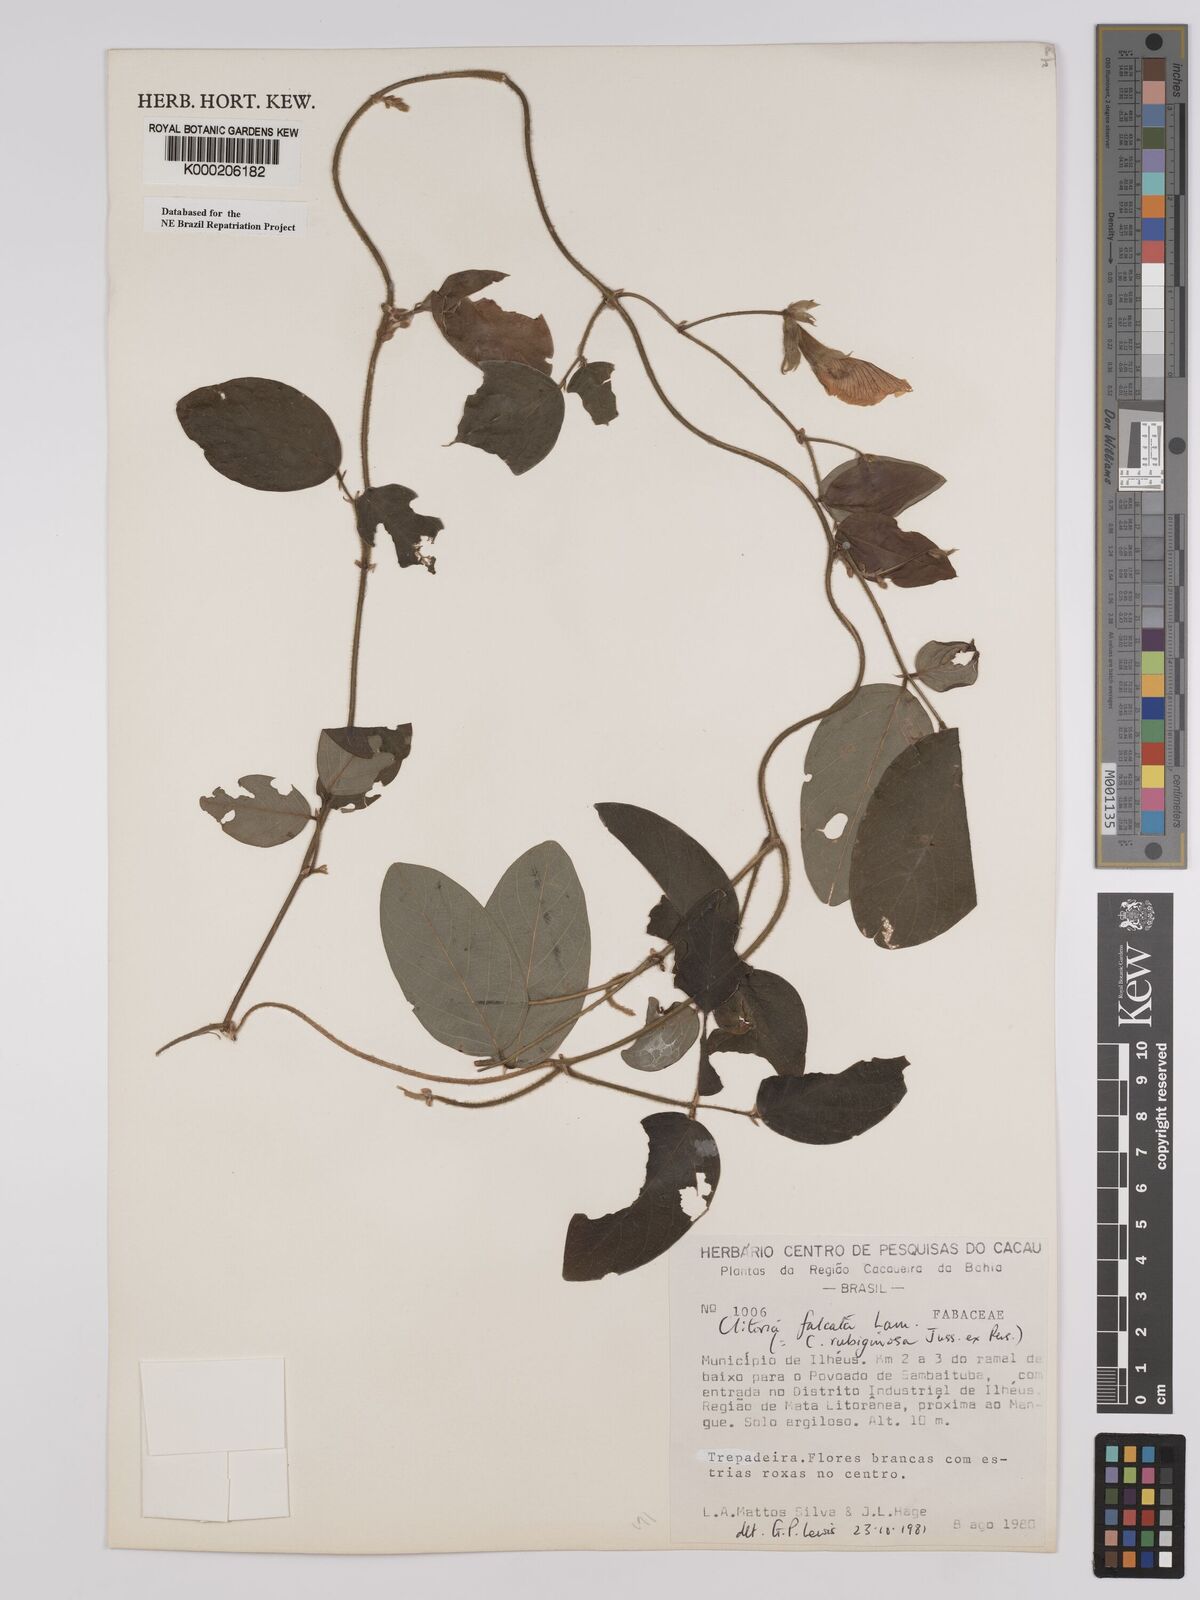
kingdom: Plantae
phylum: Tracheophyta
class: Magnoliopsida
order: Fabales
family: Fabaceae
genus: Clitoria
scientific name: Clitoria falcata
